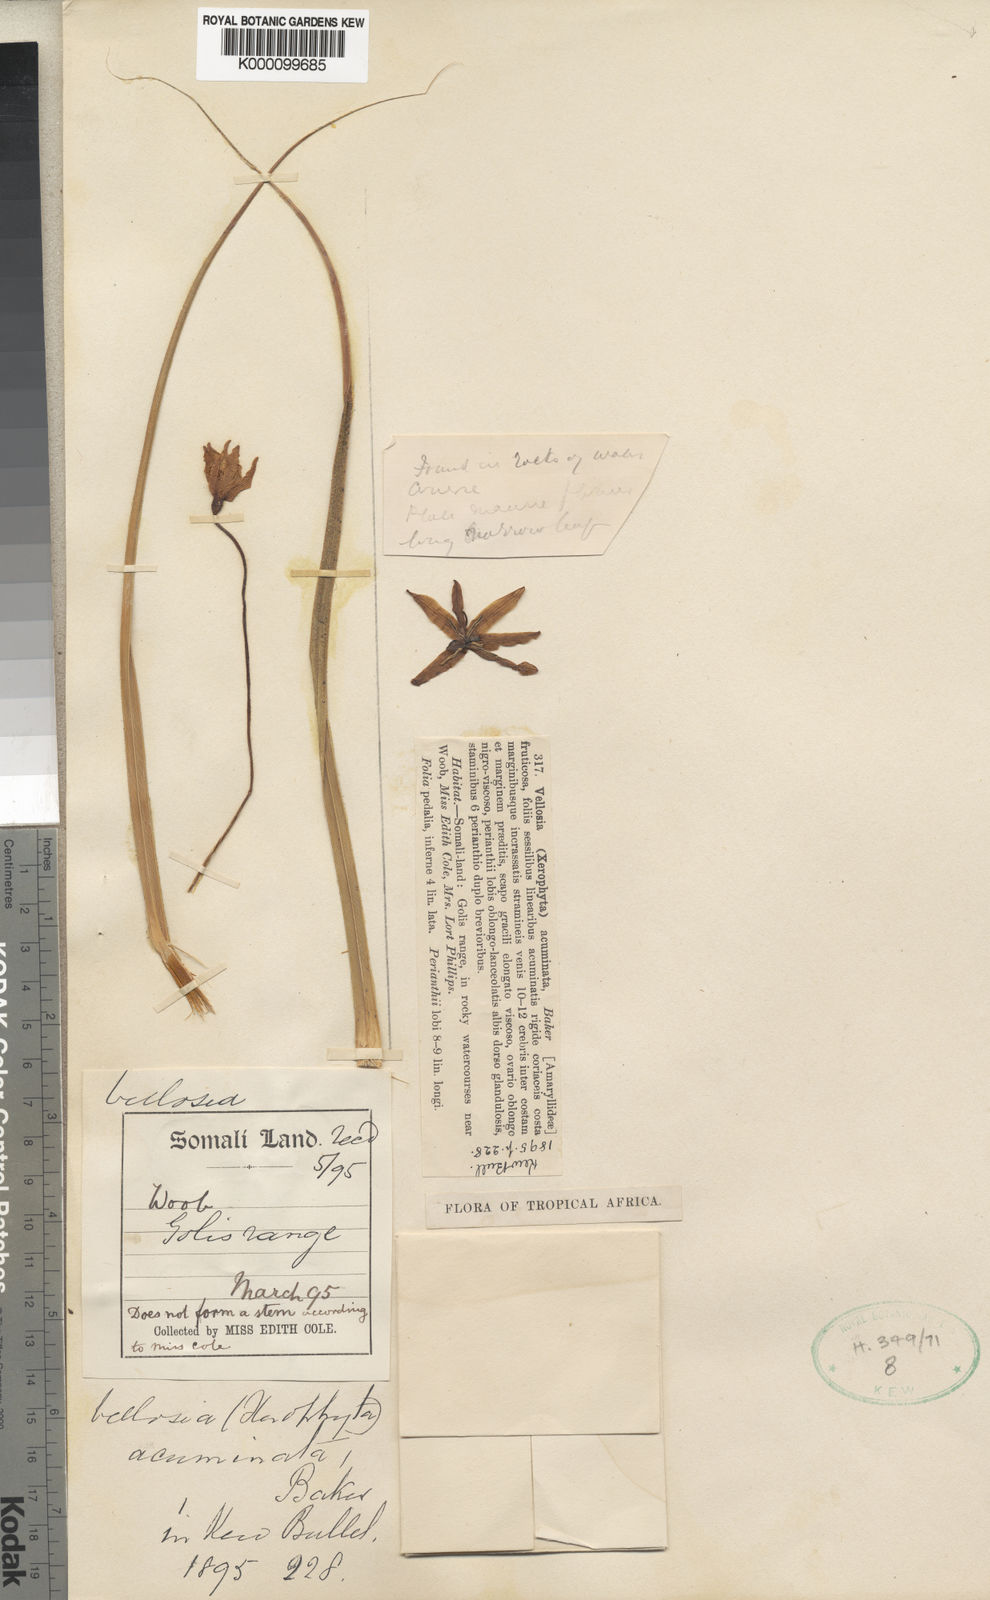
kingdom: Plantae
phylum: Tracheophyta
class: Liliopsida
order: Pandanales
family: Velloziaceae
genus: Xerophyta
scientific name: Xerophyta acuminata
